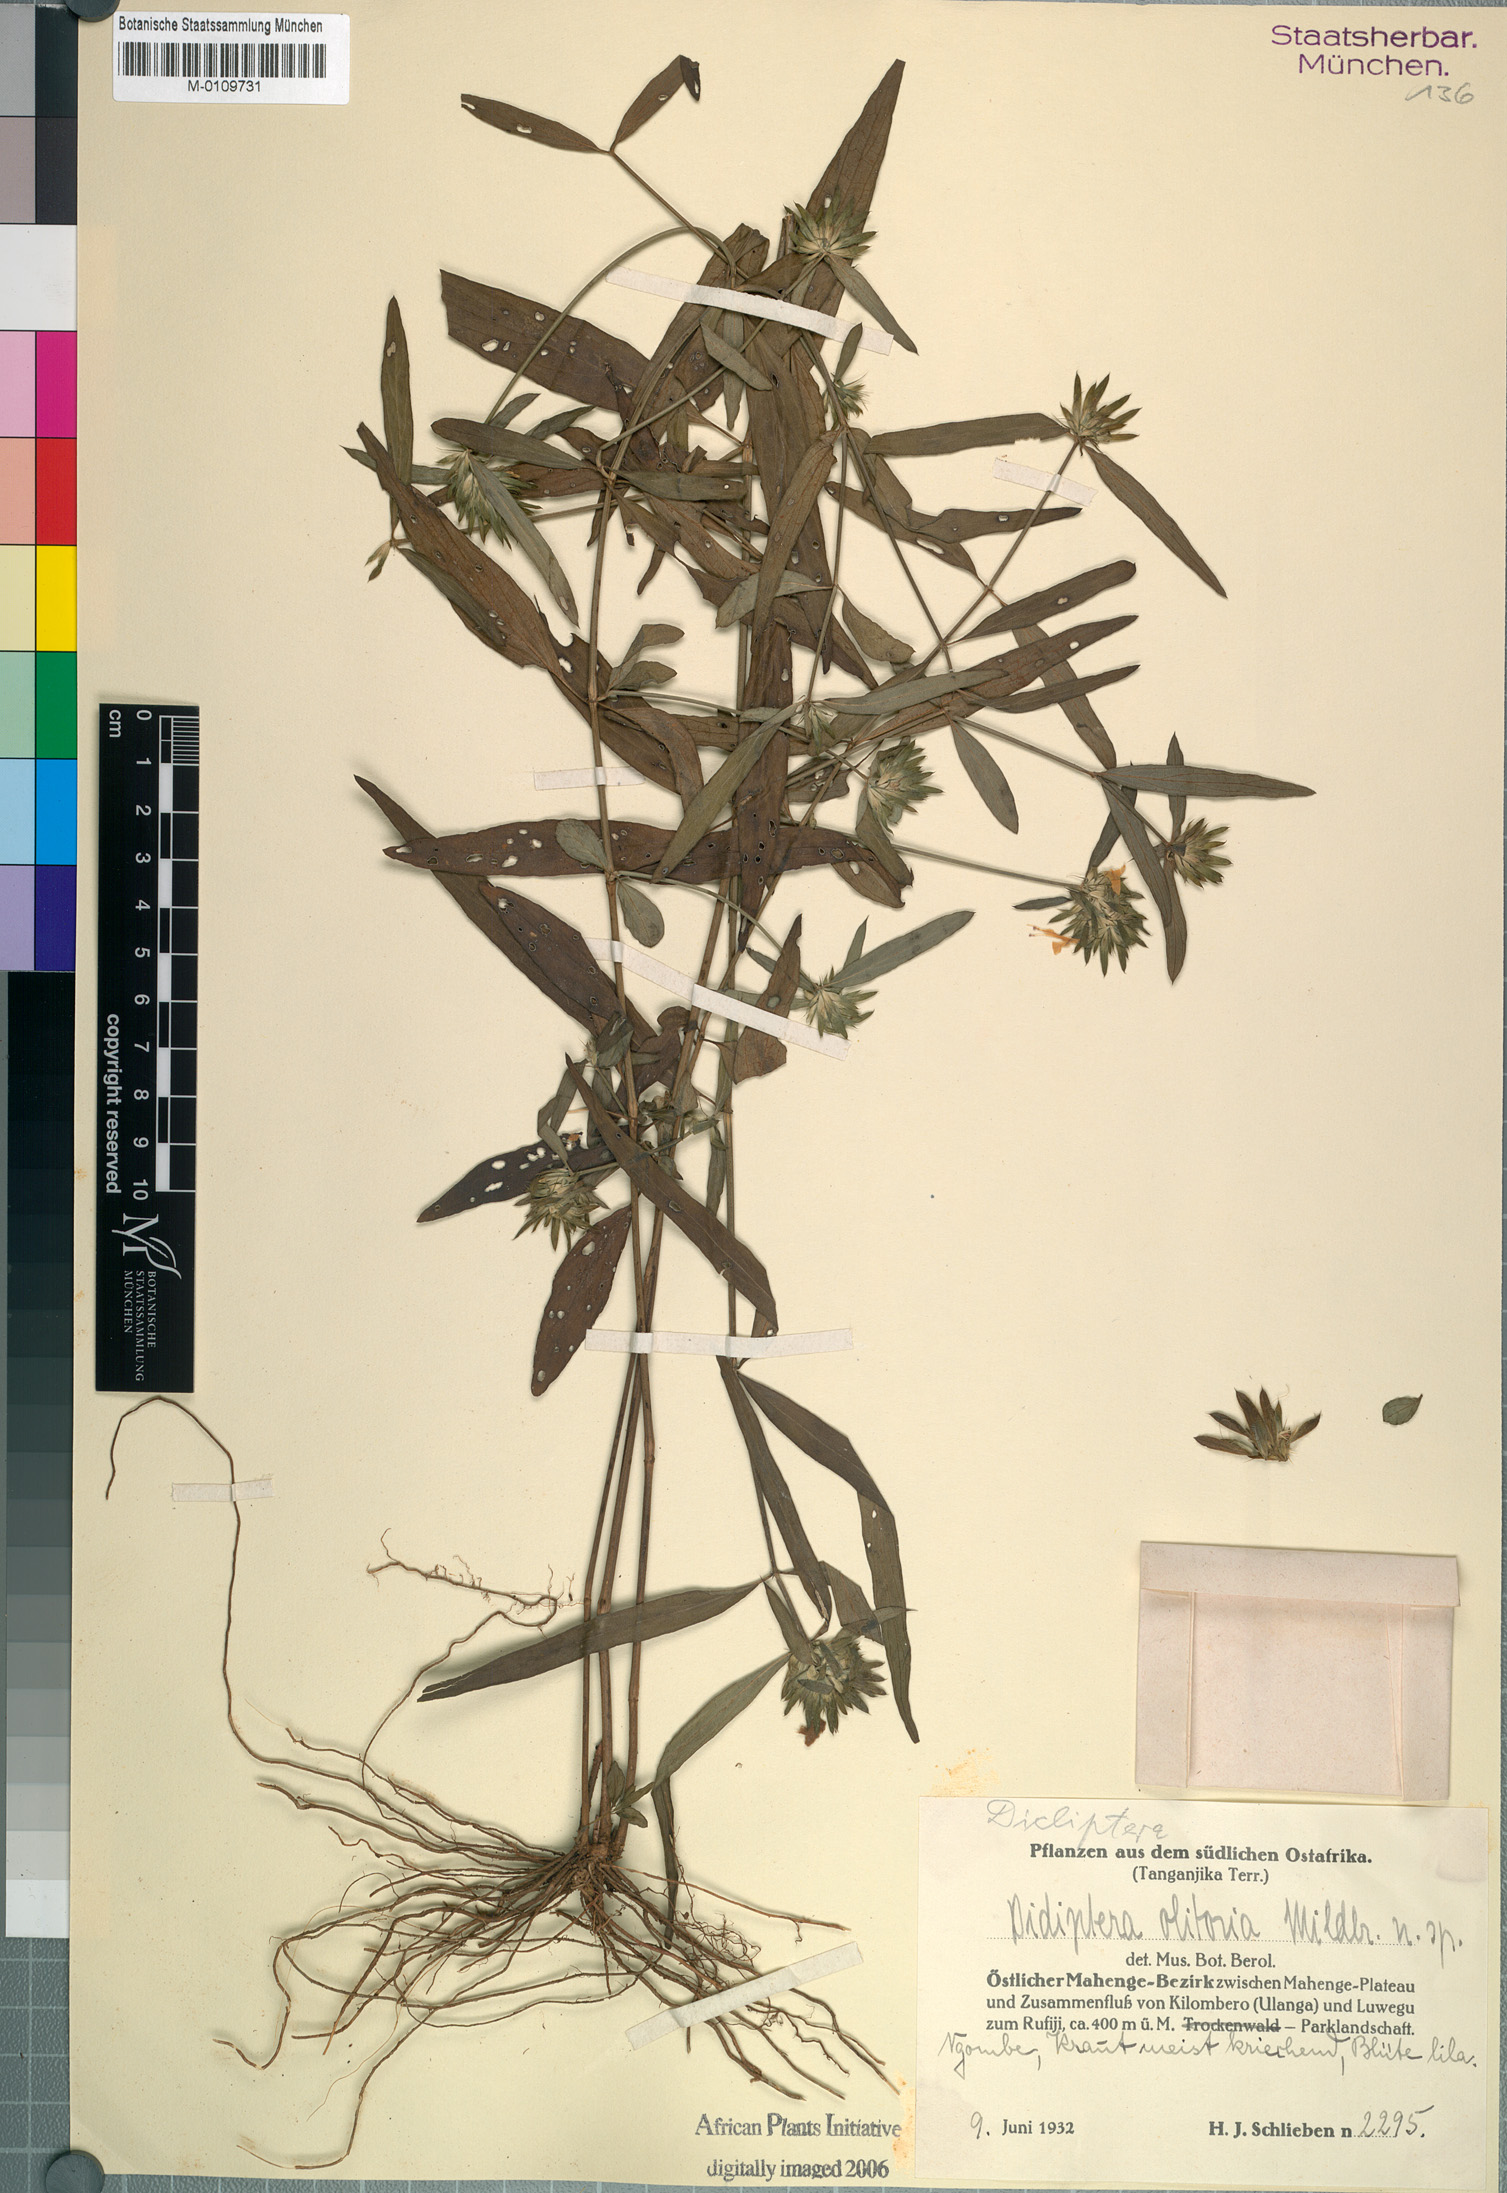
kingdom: Plantae
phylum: Tracheophyta
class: Magnoliopsida
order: Lamiales
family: Acanthaceae
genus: Dicliptera
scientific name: Dicliptera carvalhoi
